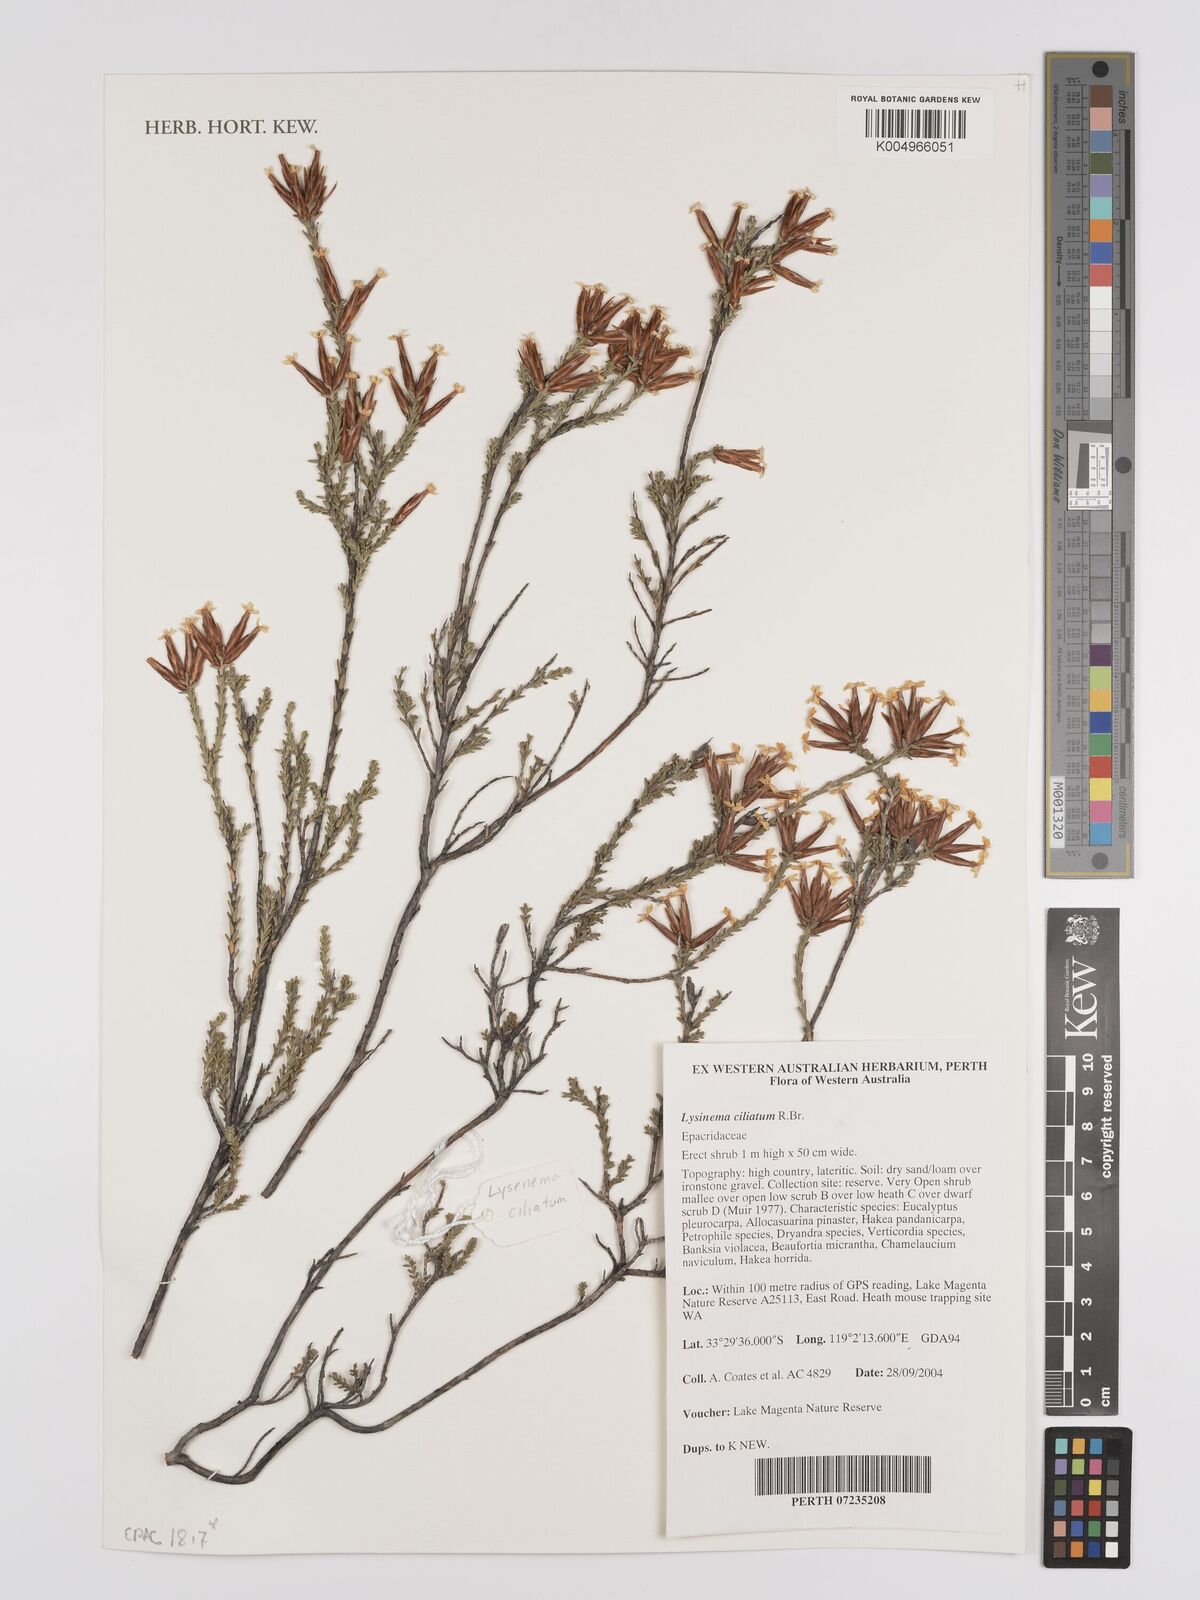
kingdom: Plantae
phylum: Tracheophyta
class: Magnoliopsida
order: Ericales
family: Ericaceae
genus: Lysinema
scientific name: Lysinema ciliatum
